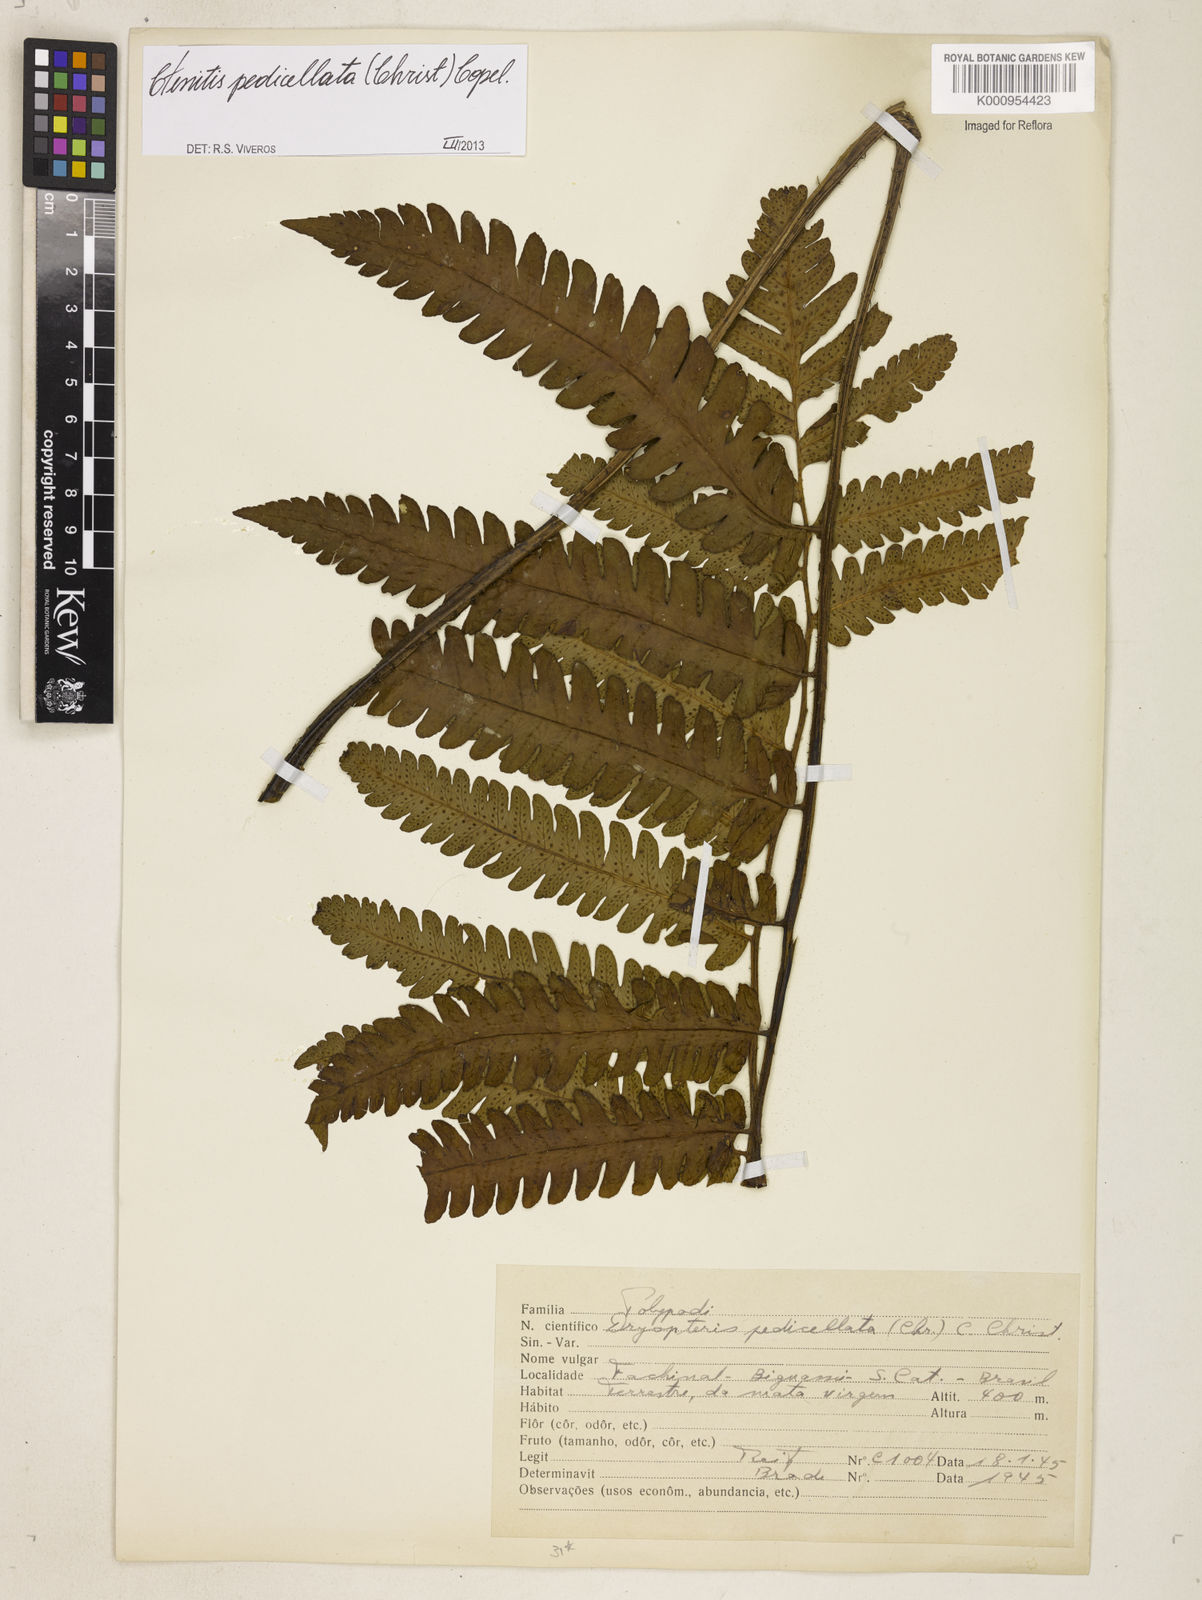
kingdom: Plantae
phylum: Tracheophyta
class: Polypodiopsida
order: Polypodiales
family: Dryopteridaceae
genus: Ctenitis
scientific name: Ctenitis nervata
